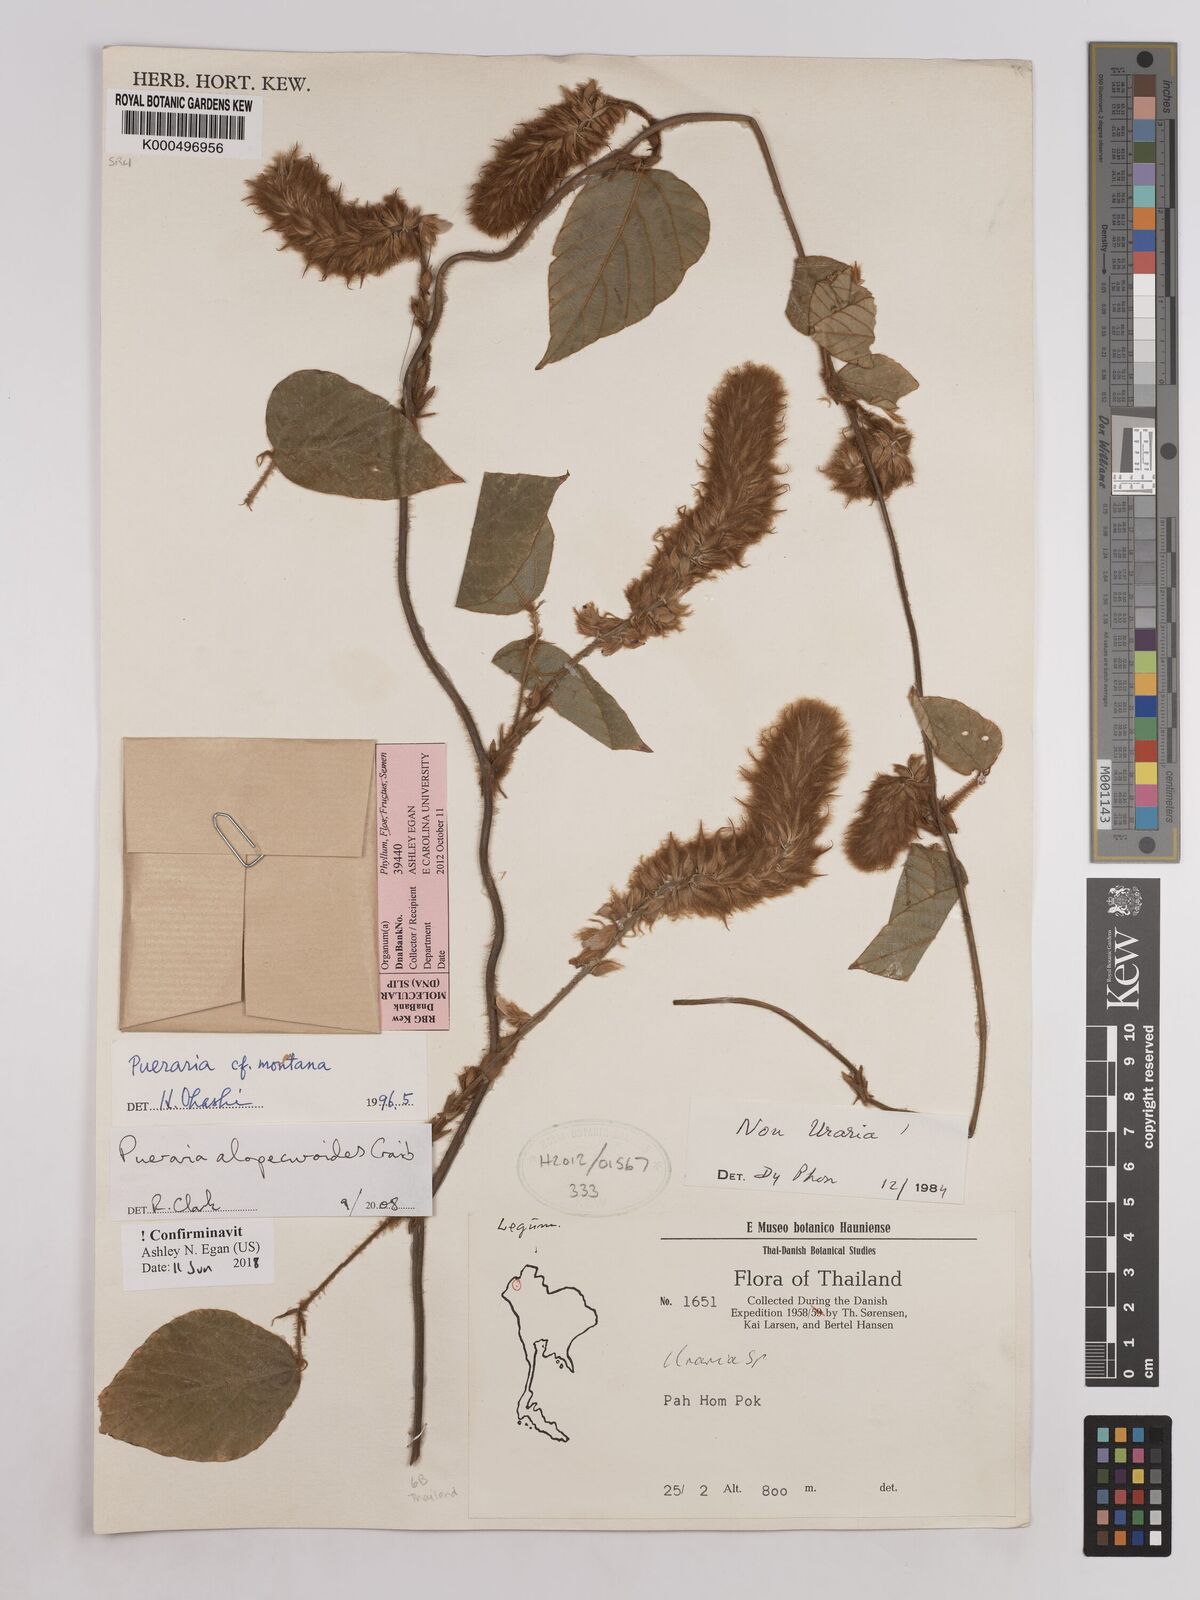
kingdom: Plantae
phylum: Tracheophyta
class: Magnoliopsida
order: Fabales
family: Fabaceae
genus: Pueraria
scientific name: Pueraria alopecuroides
